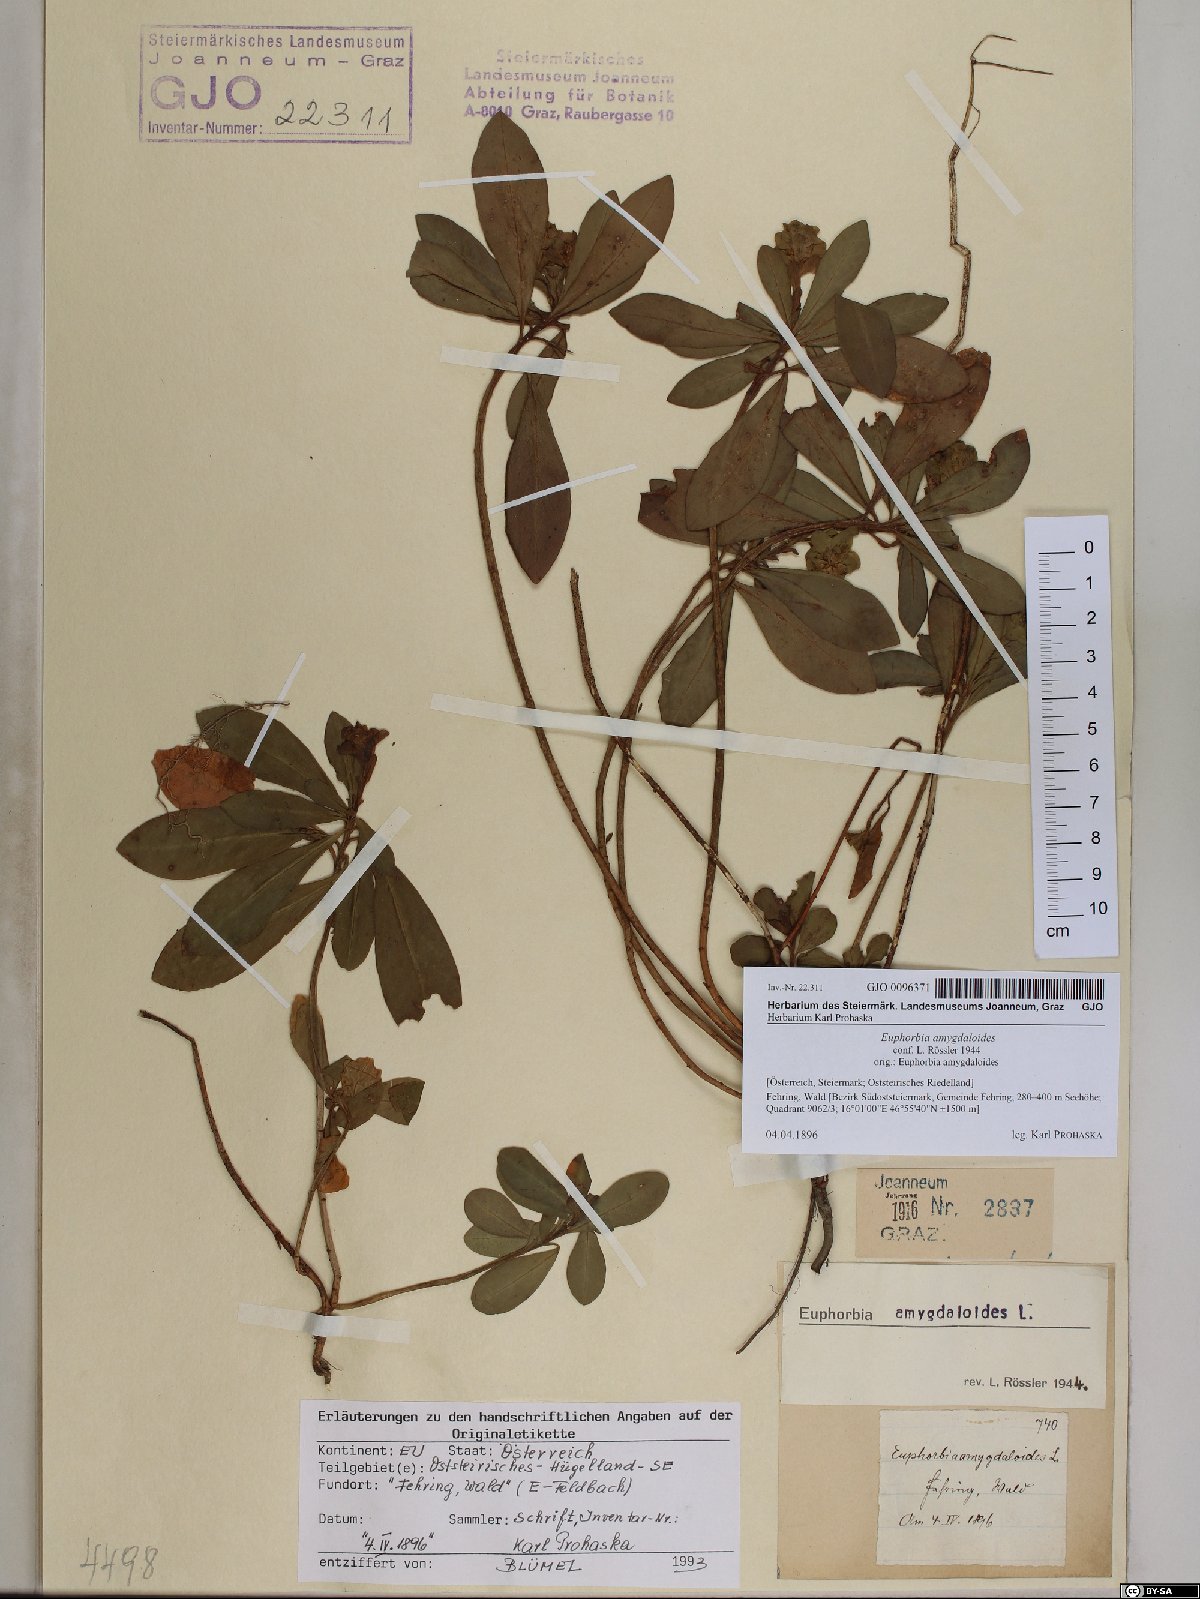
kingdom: Plantae
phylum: Tracheophyta
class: Magnoliopsida
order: Malpighiales
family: Euphorbiaceae
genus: Euphorbia
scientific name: Euphorbia amygdaloides
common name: Wood spurge
